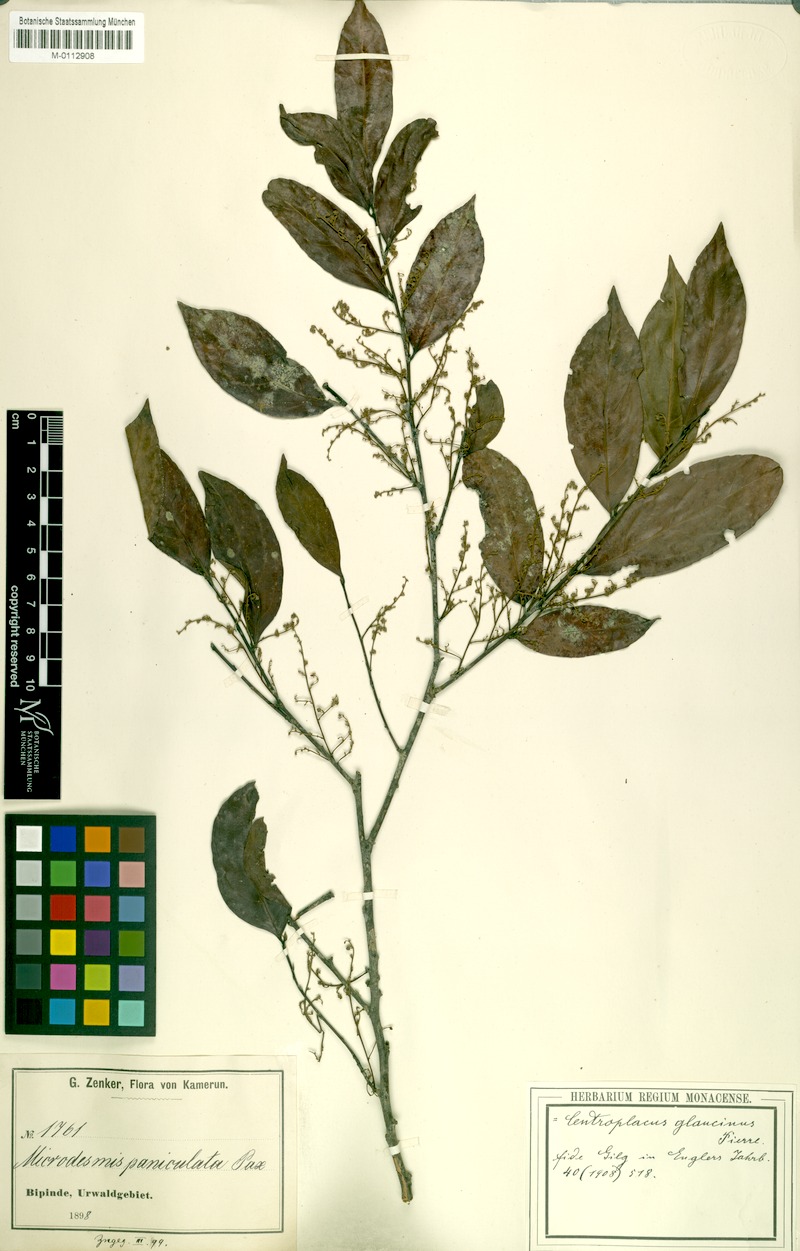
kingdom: Plantae
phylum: Tracheophyta
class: Magnoliopsida
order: Malpighiales
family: Centroplacaceae
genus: Centroplacus
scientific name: Centroplacus glaucinus
